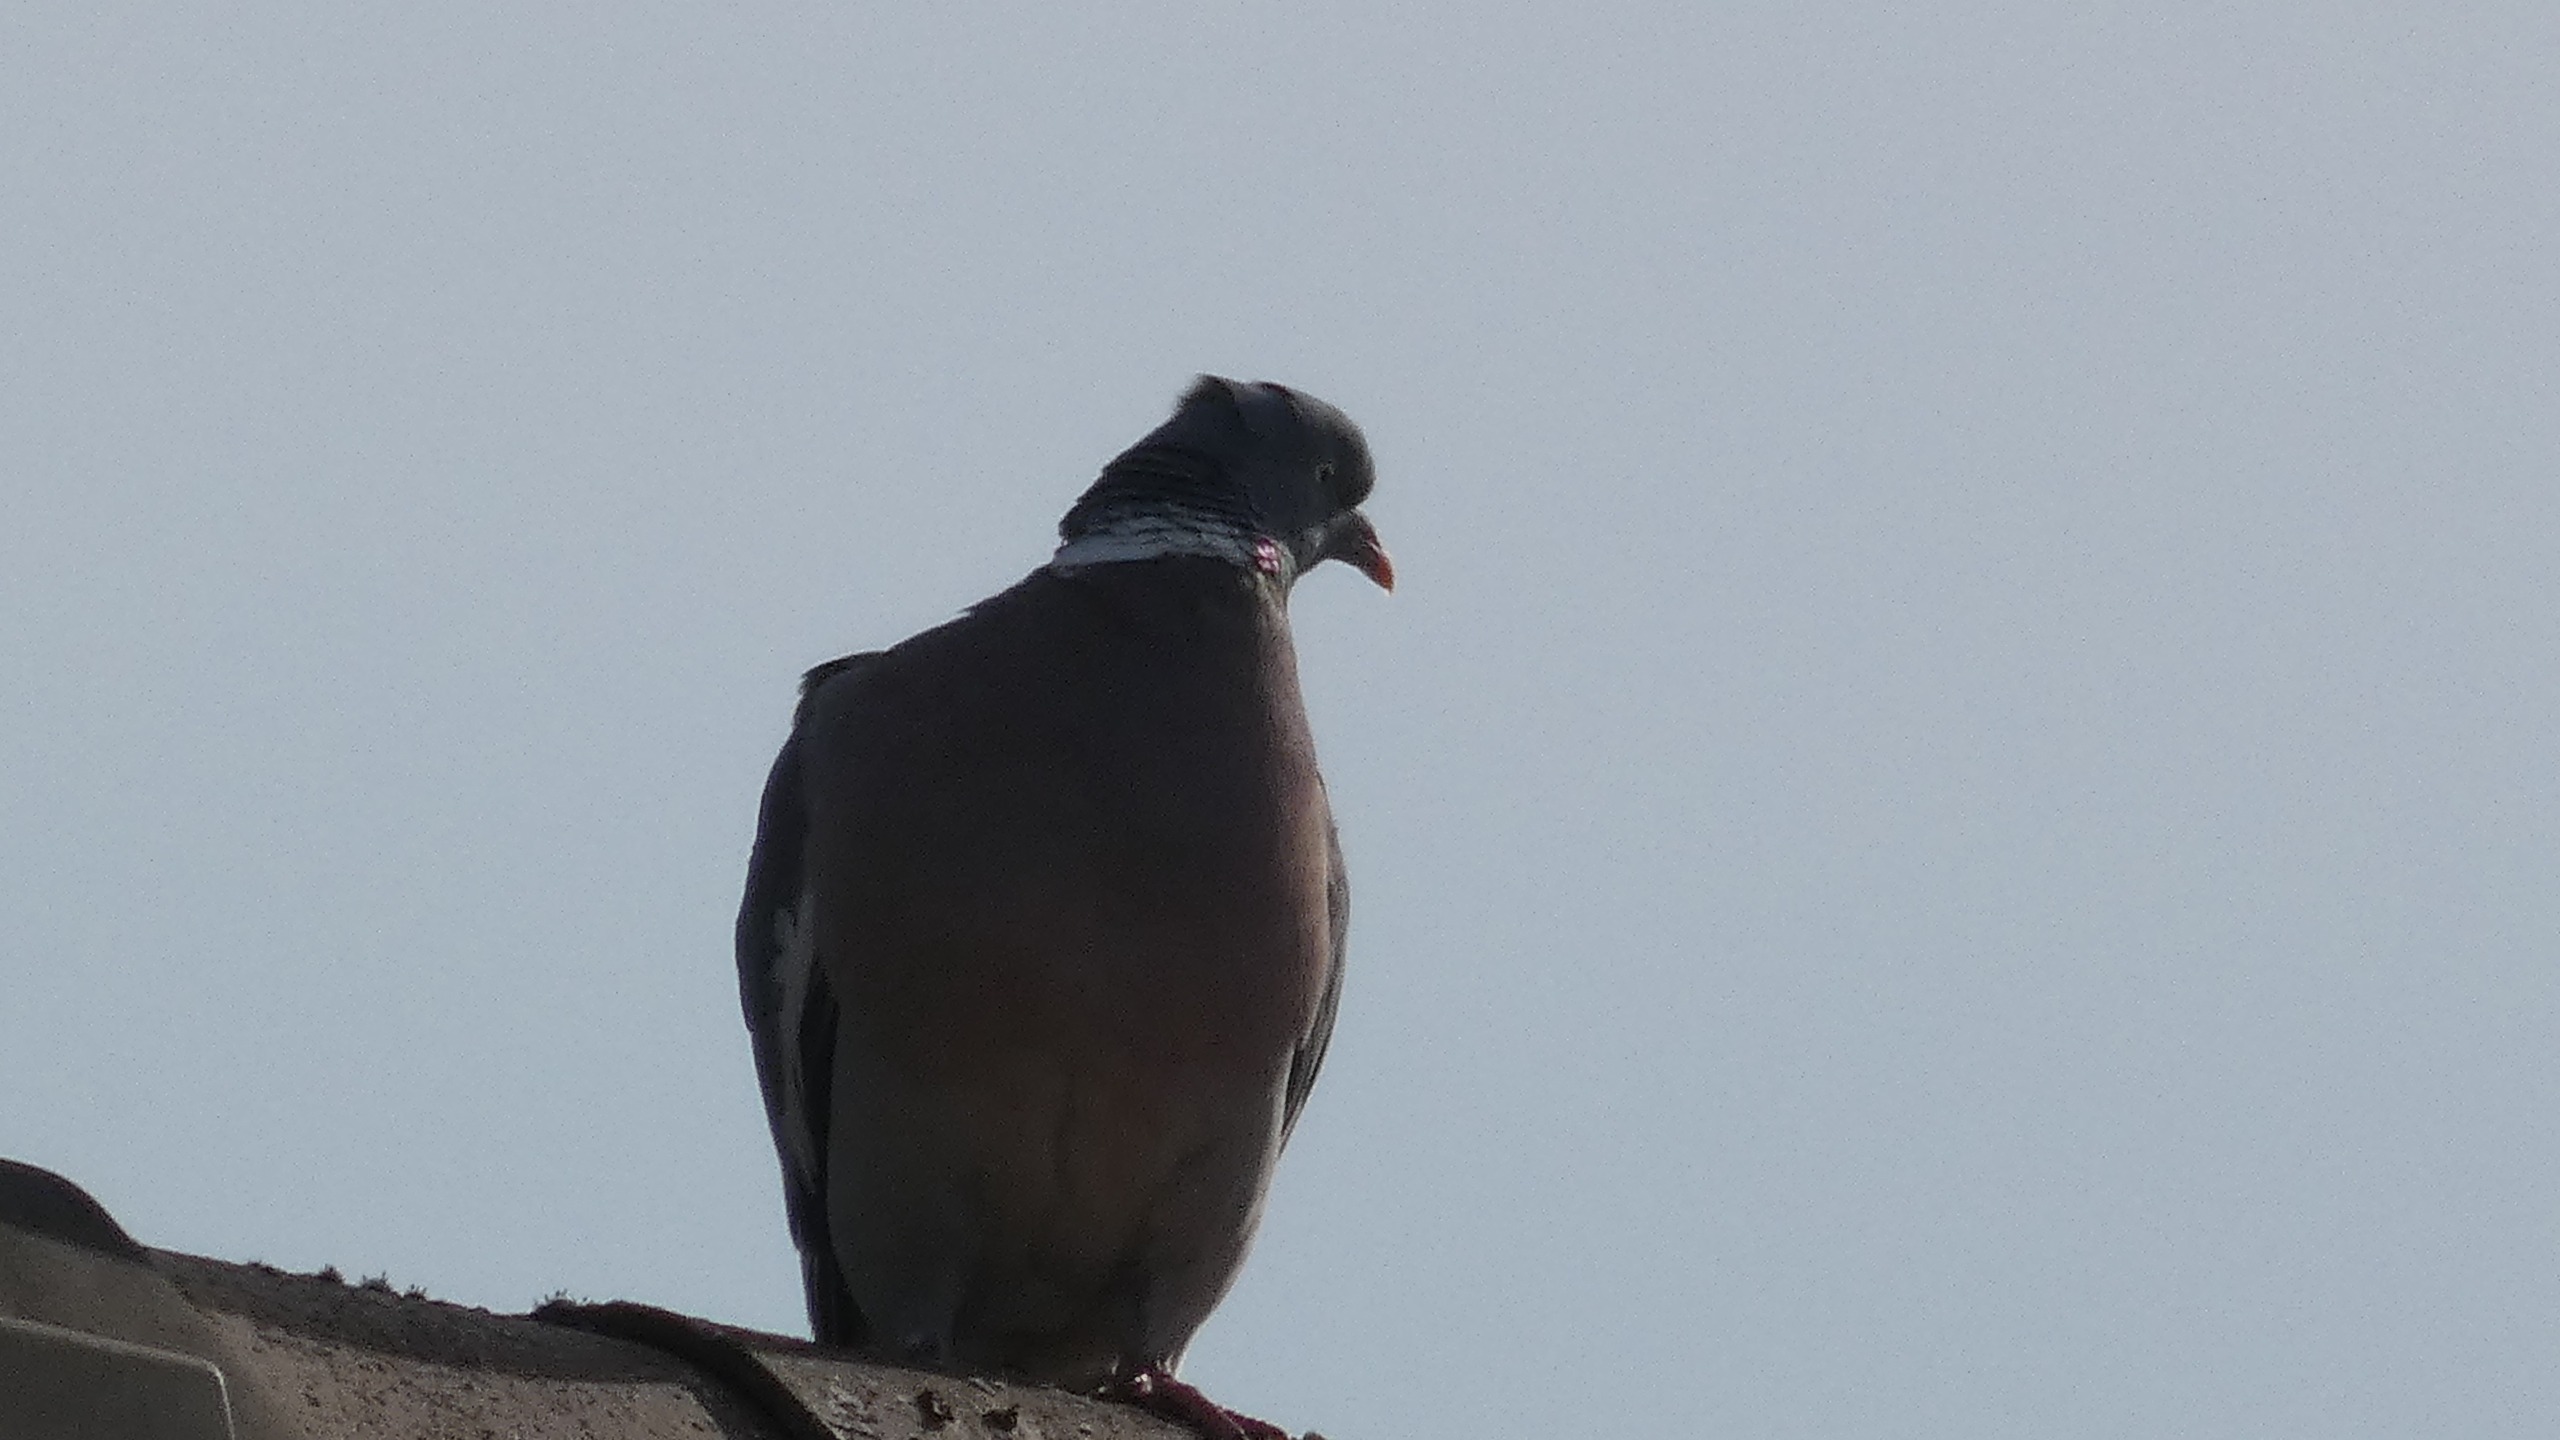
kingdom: Animalia
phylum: Chordata
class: Aves
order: Columbiformes
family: Columbidae
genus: Columba
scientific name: Columba palumbus
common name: Ringdue
